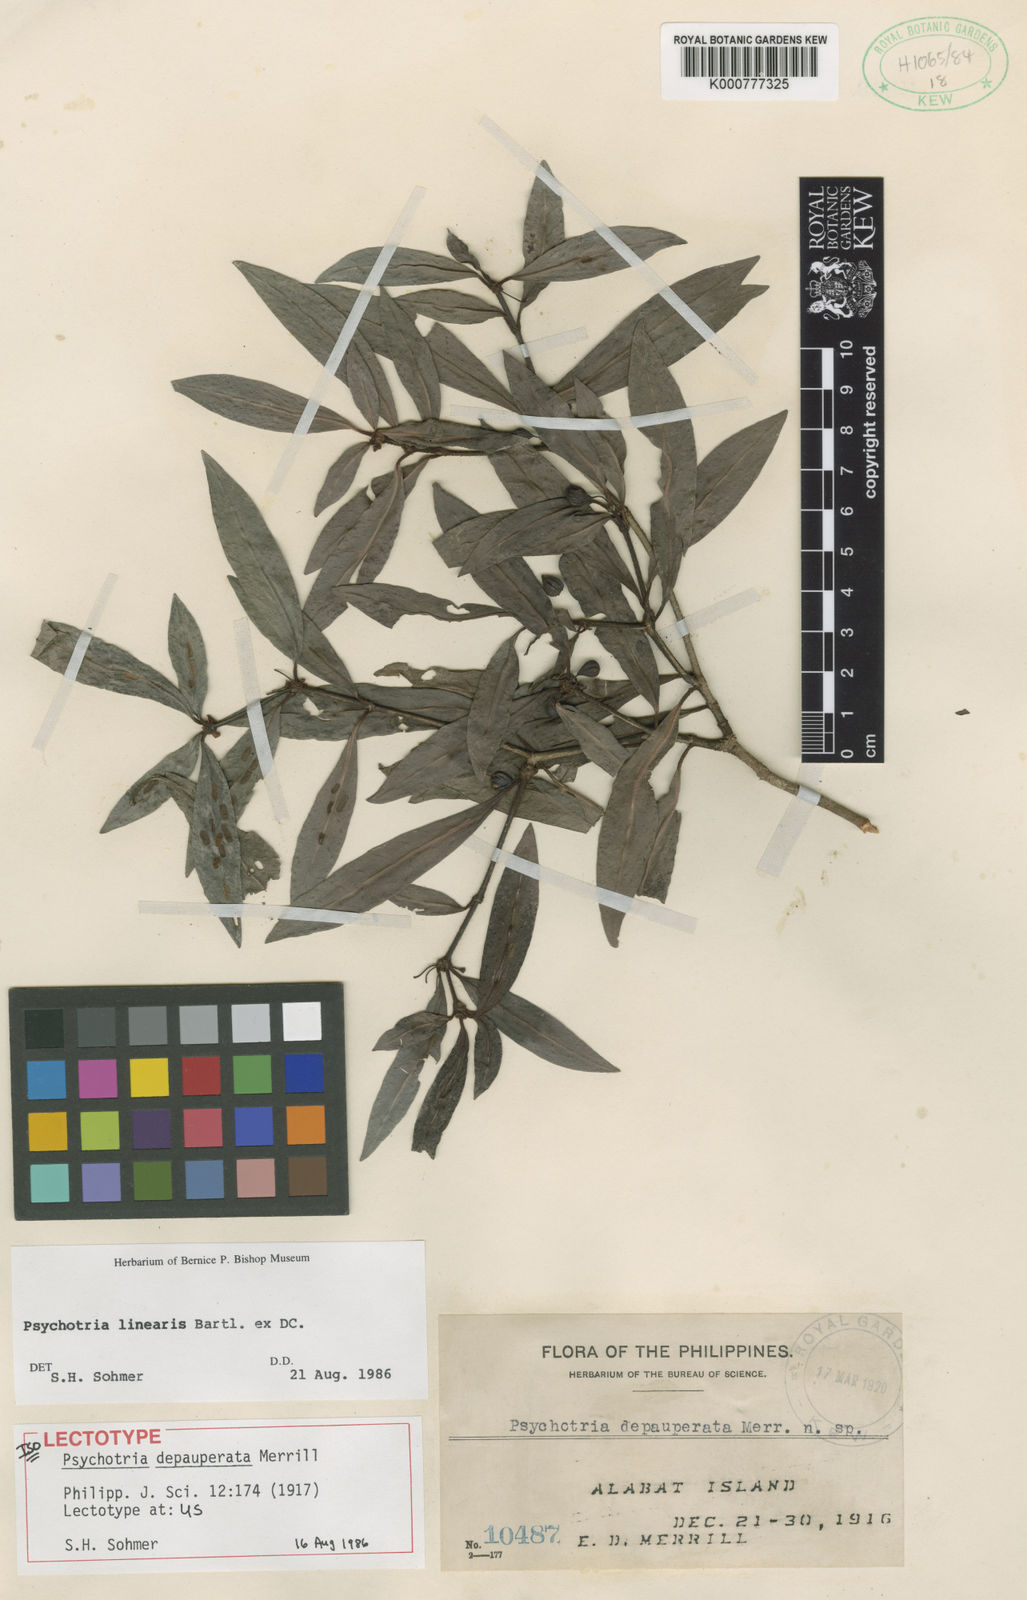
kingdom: Plantae
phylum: Tracheophyta
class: Magnoliopsida
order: Gentianales
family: Rubiaceae
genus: Psychotria
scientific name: Psychotria linearis
